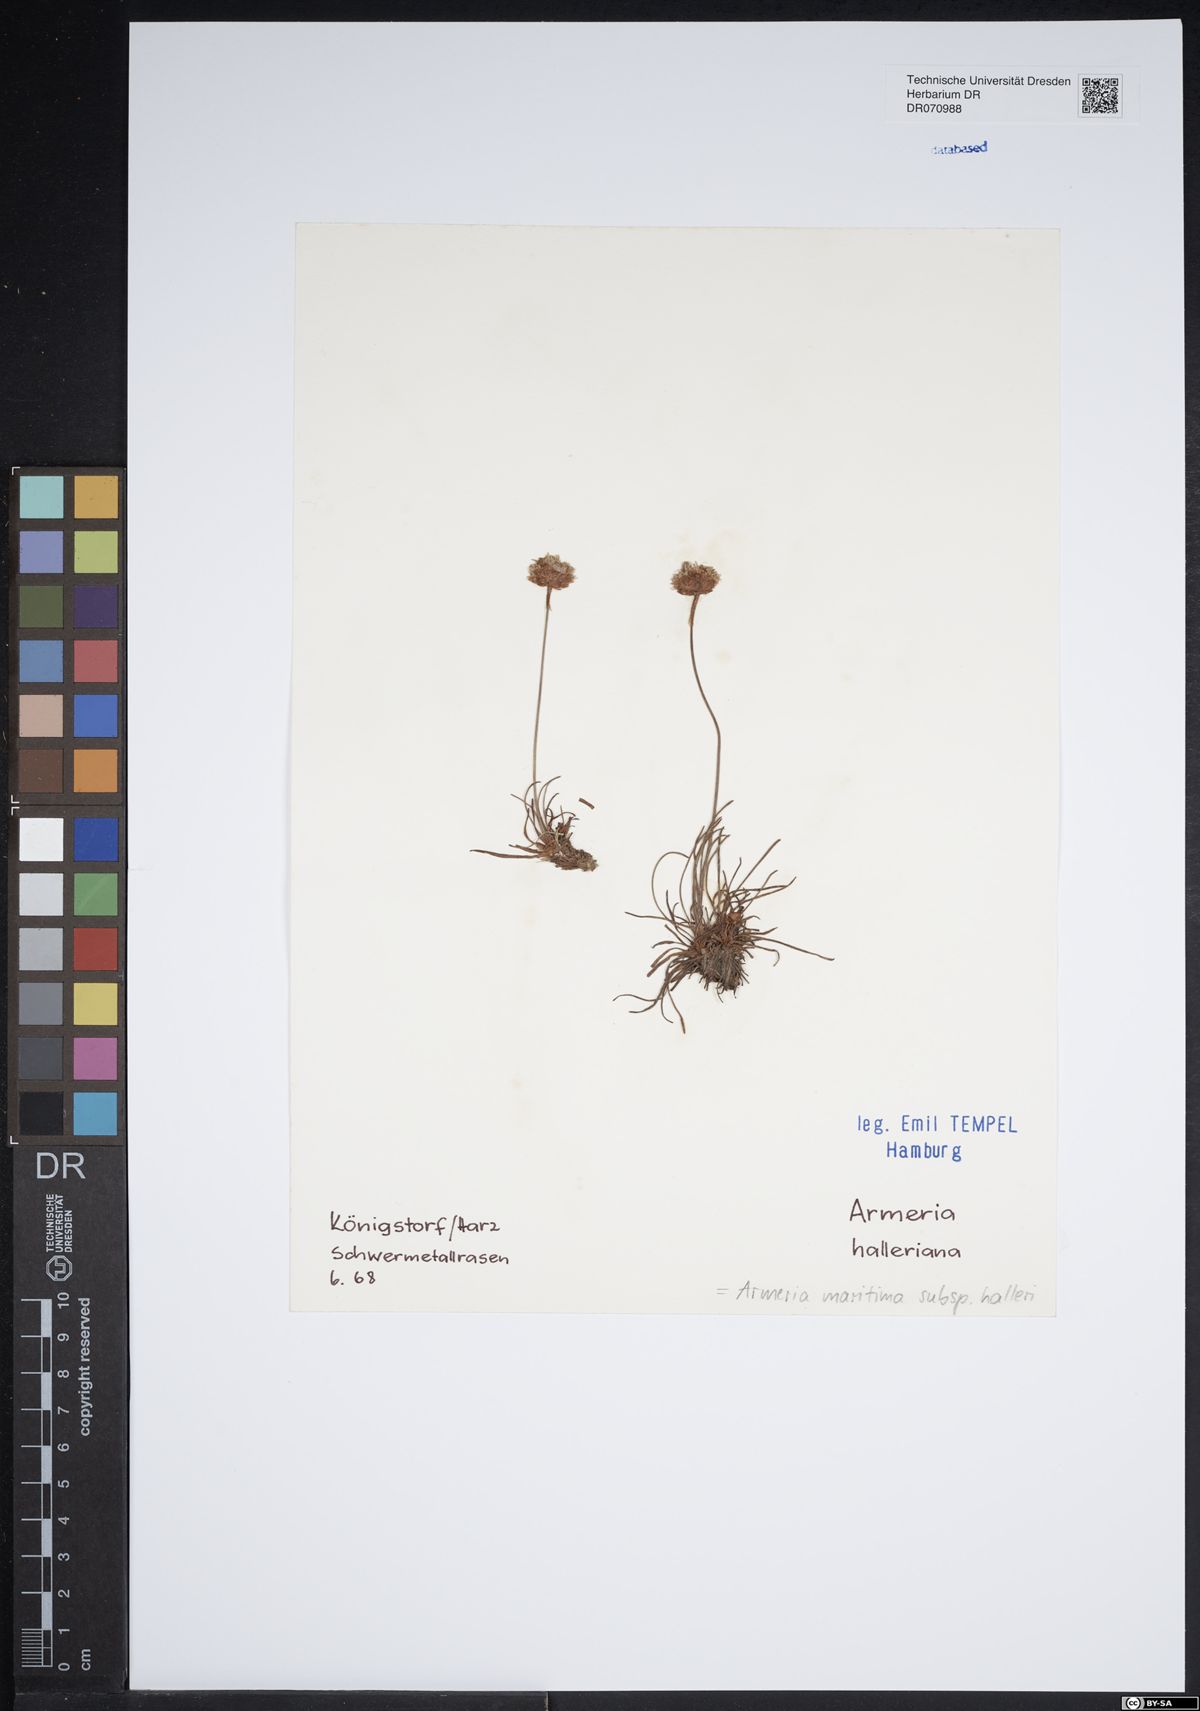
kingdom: Plantae
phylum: Tracheophyta
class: Magnoliopsida
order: Caryophyllales
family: Plumbaginaceae
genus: Armeria
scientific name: Armeria maritima
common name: Thrift
